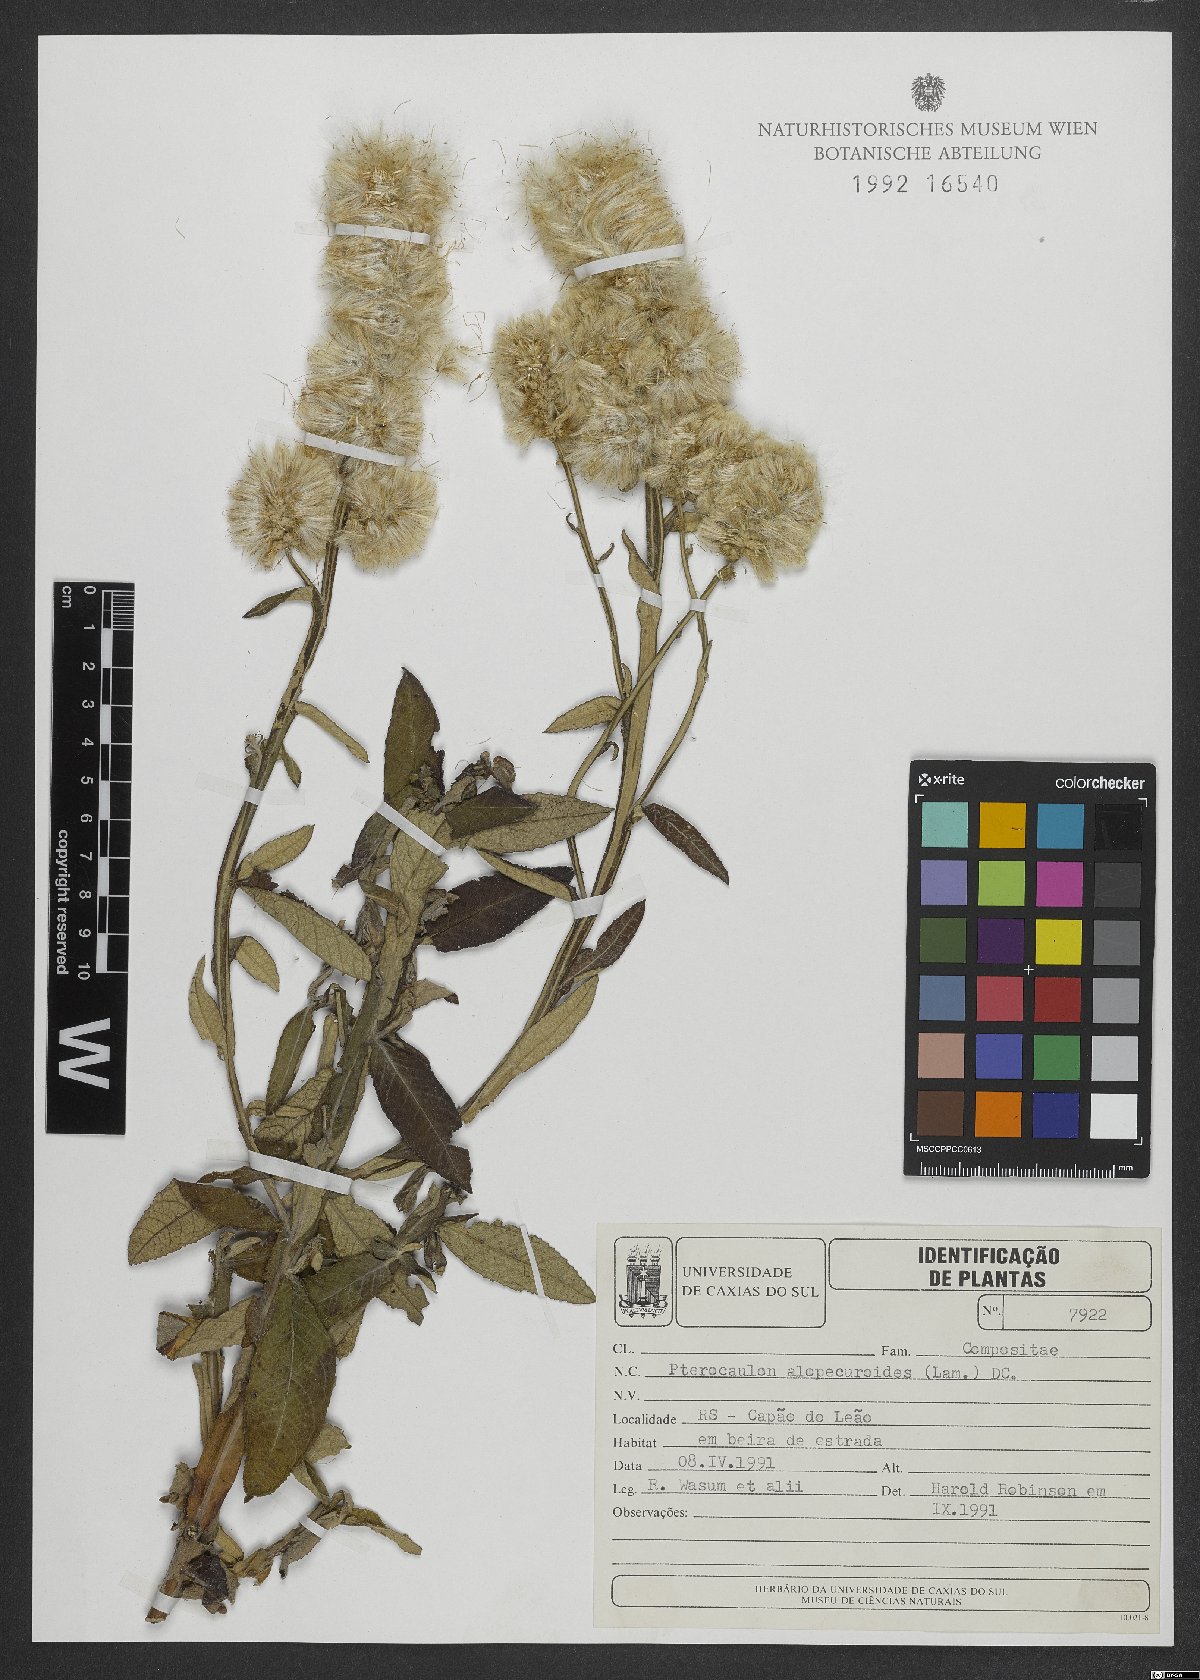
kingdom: Plantae
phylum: Tracheophyta
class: Magnoliopsida
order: Asterales
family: Asteraceae
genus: Pterocaulon
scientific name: Pterocaulon alopecuroides
